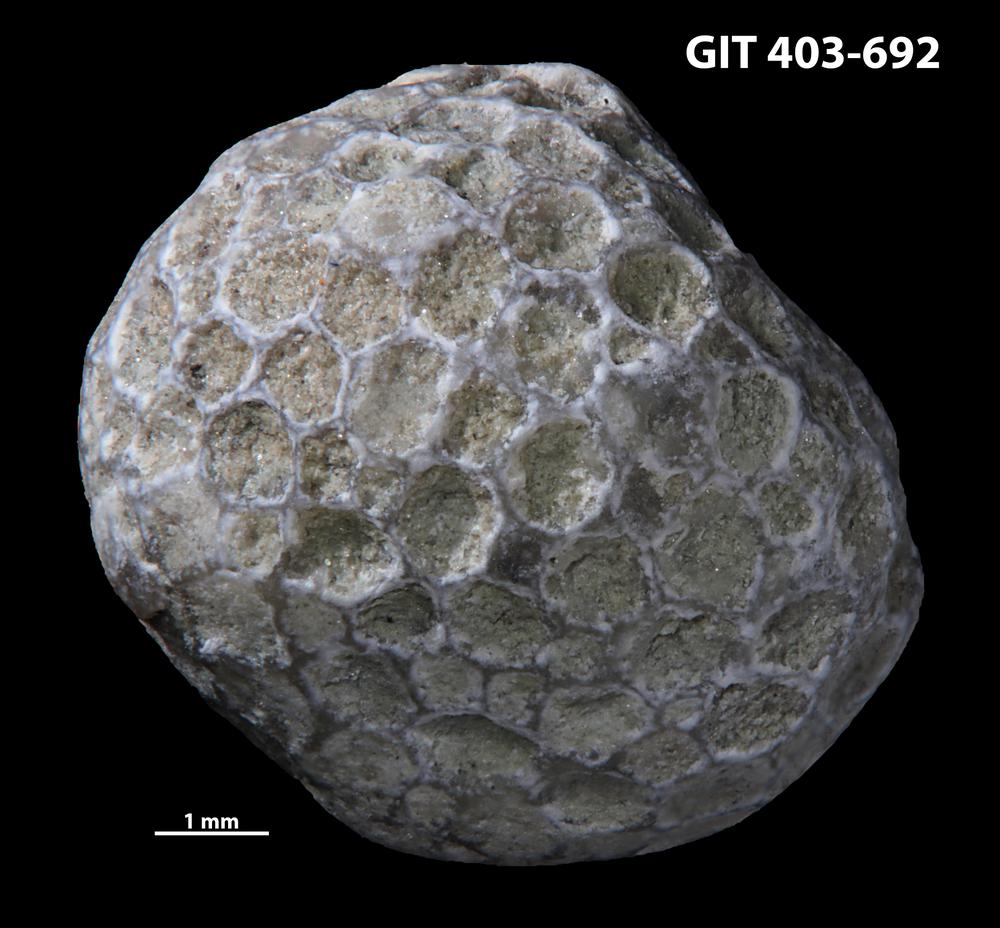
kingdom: Animalia
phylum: Cnidaria
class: Anthozoa
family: Favositidae
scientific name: Favositidae
